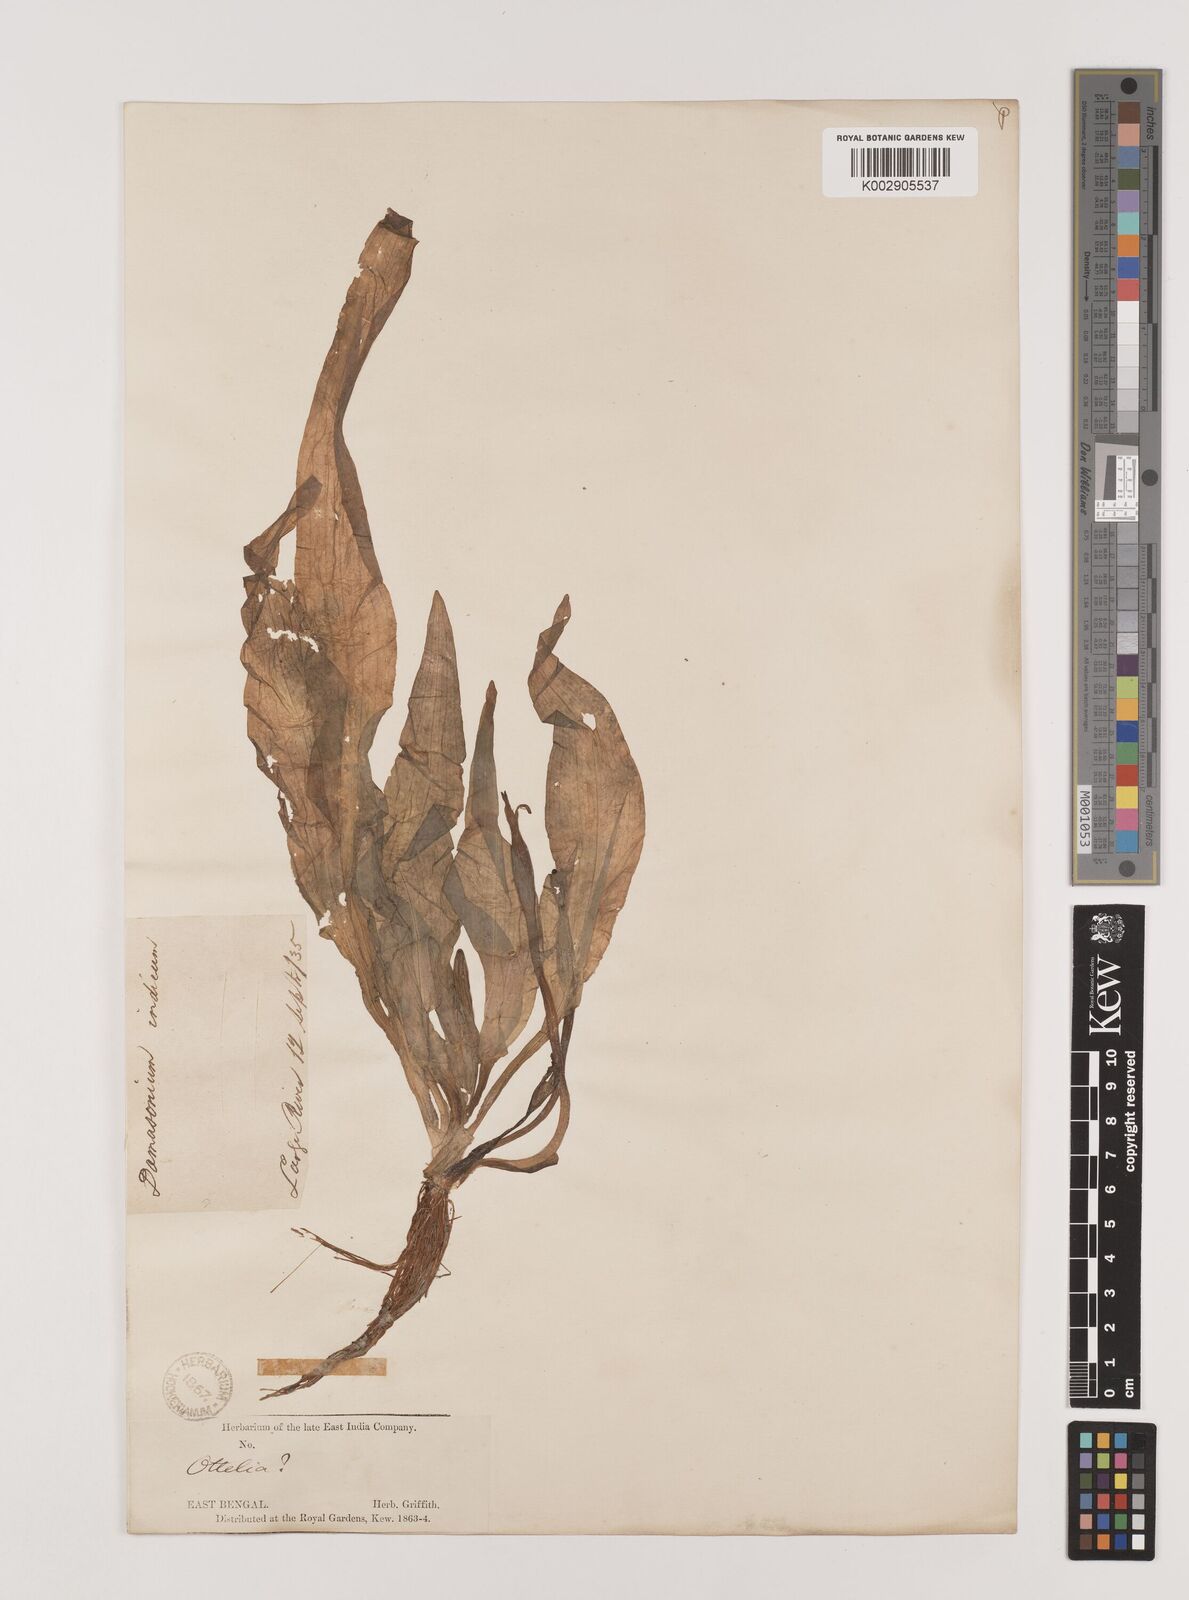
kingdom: Plantae
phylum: Tracheophyta
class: Liliopsida
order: Alismatales
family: Hydrocharitaceae
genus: Ottelia
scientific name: Ottelia alismoides
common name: Duck-lettuce
